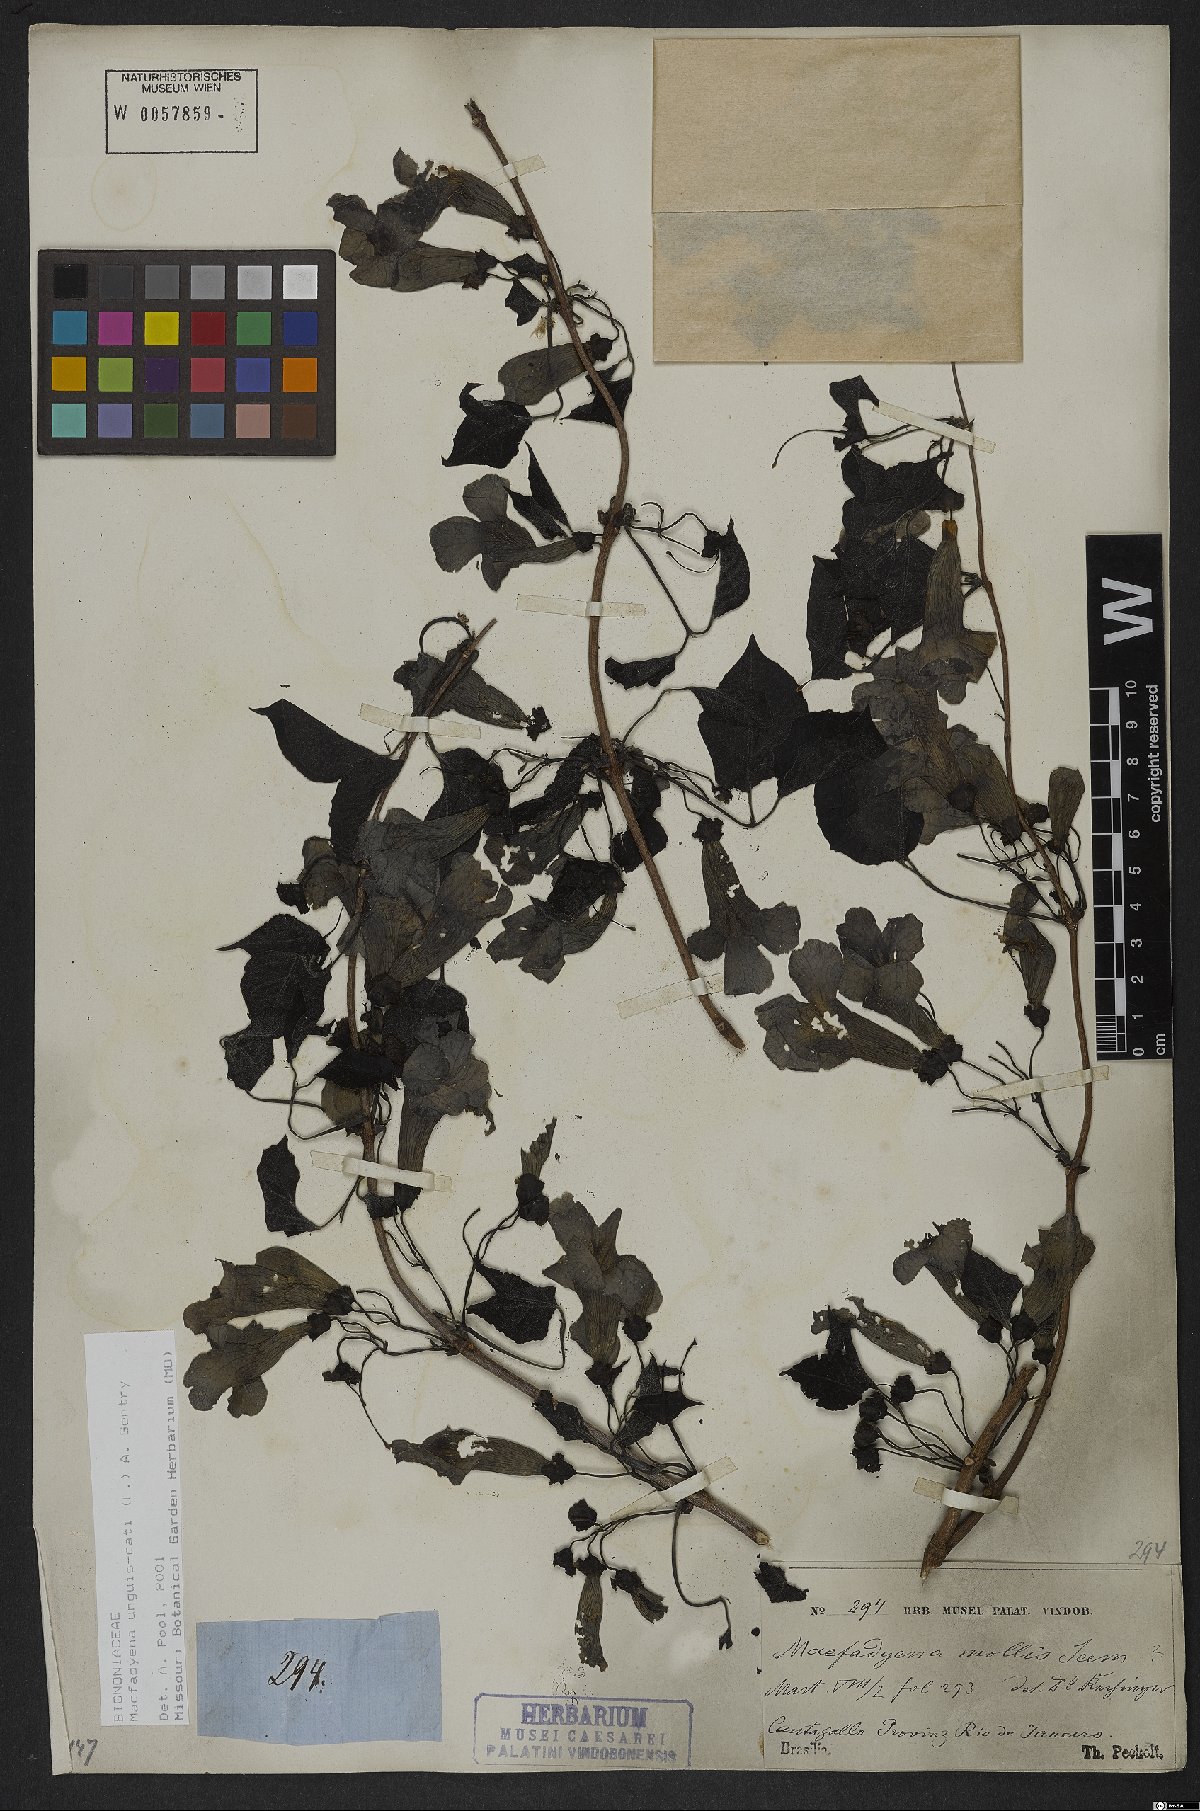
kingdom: Plantae
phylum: Tracheophyta
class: Magnoliopsida
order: Lamiales
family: Bignoniaceae
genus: Dolichandra
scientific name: Dolichandra unguis-cati
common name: Catclaw vine
